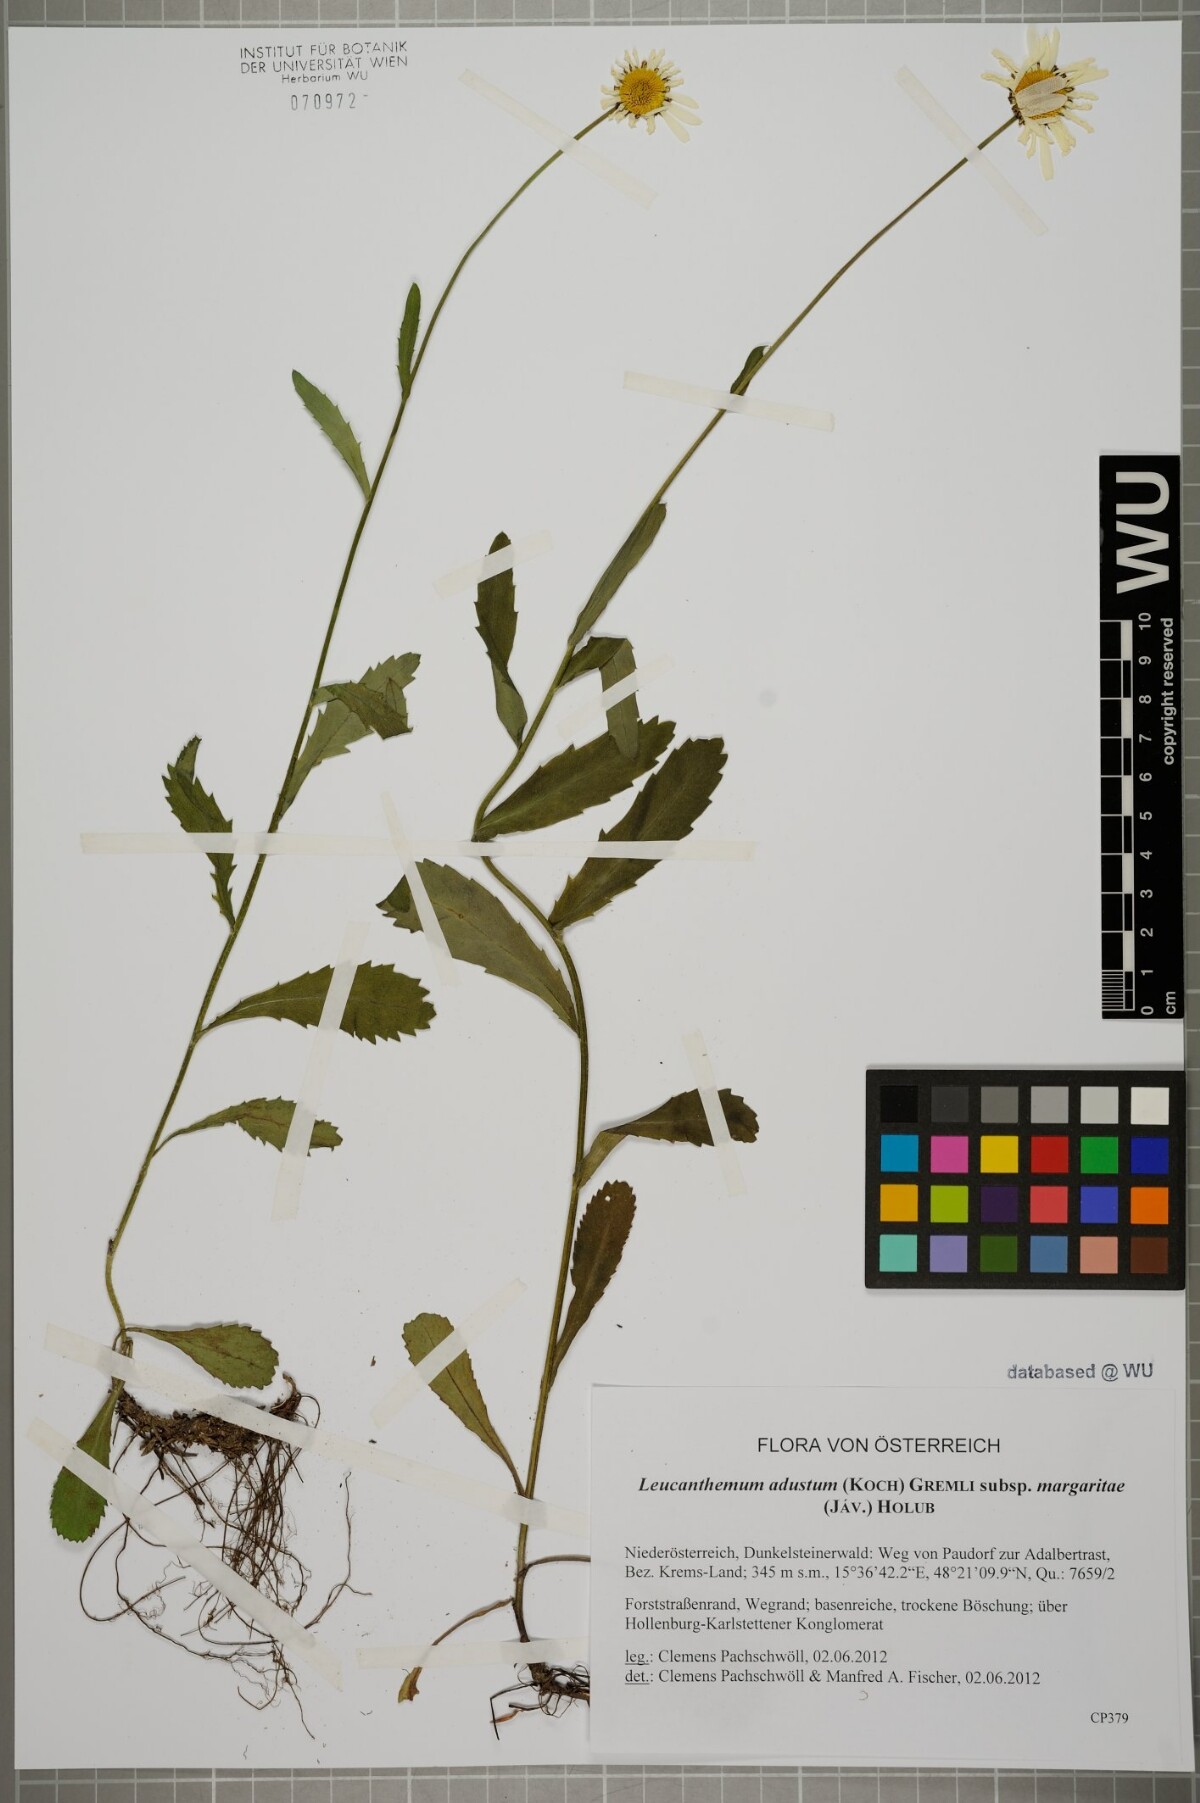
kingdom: Plantae
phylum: Tracheophyta
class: Magnoliopsida
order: Asterales
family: Asteraceae
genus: Leucanthemum
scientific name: Leucanthemum adustum
